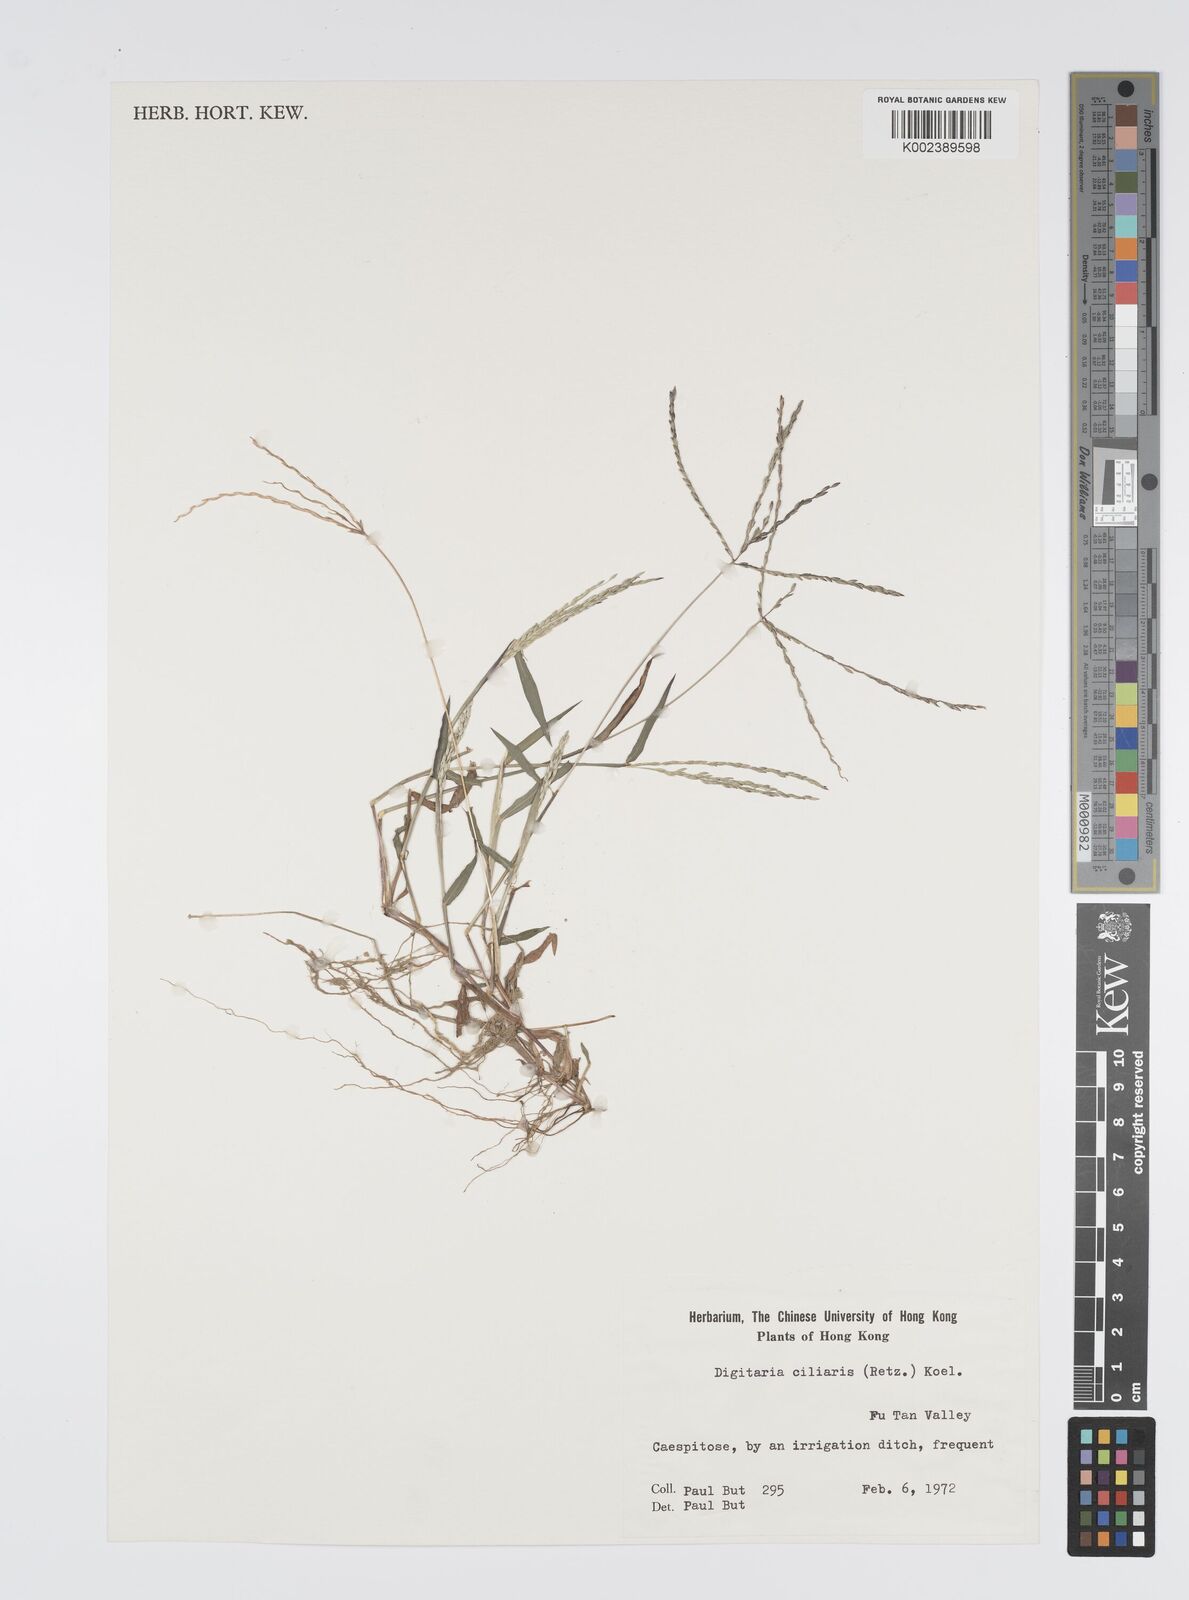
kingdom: Plantae
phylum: Tracheophyta
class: Liliopsida
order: Poales
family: Poaceae
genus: Digitaria
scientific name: Digitaria ciliaris
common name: Tropical finger-grass
